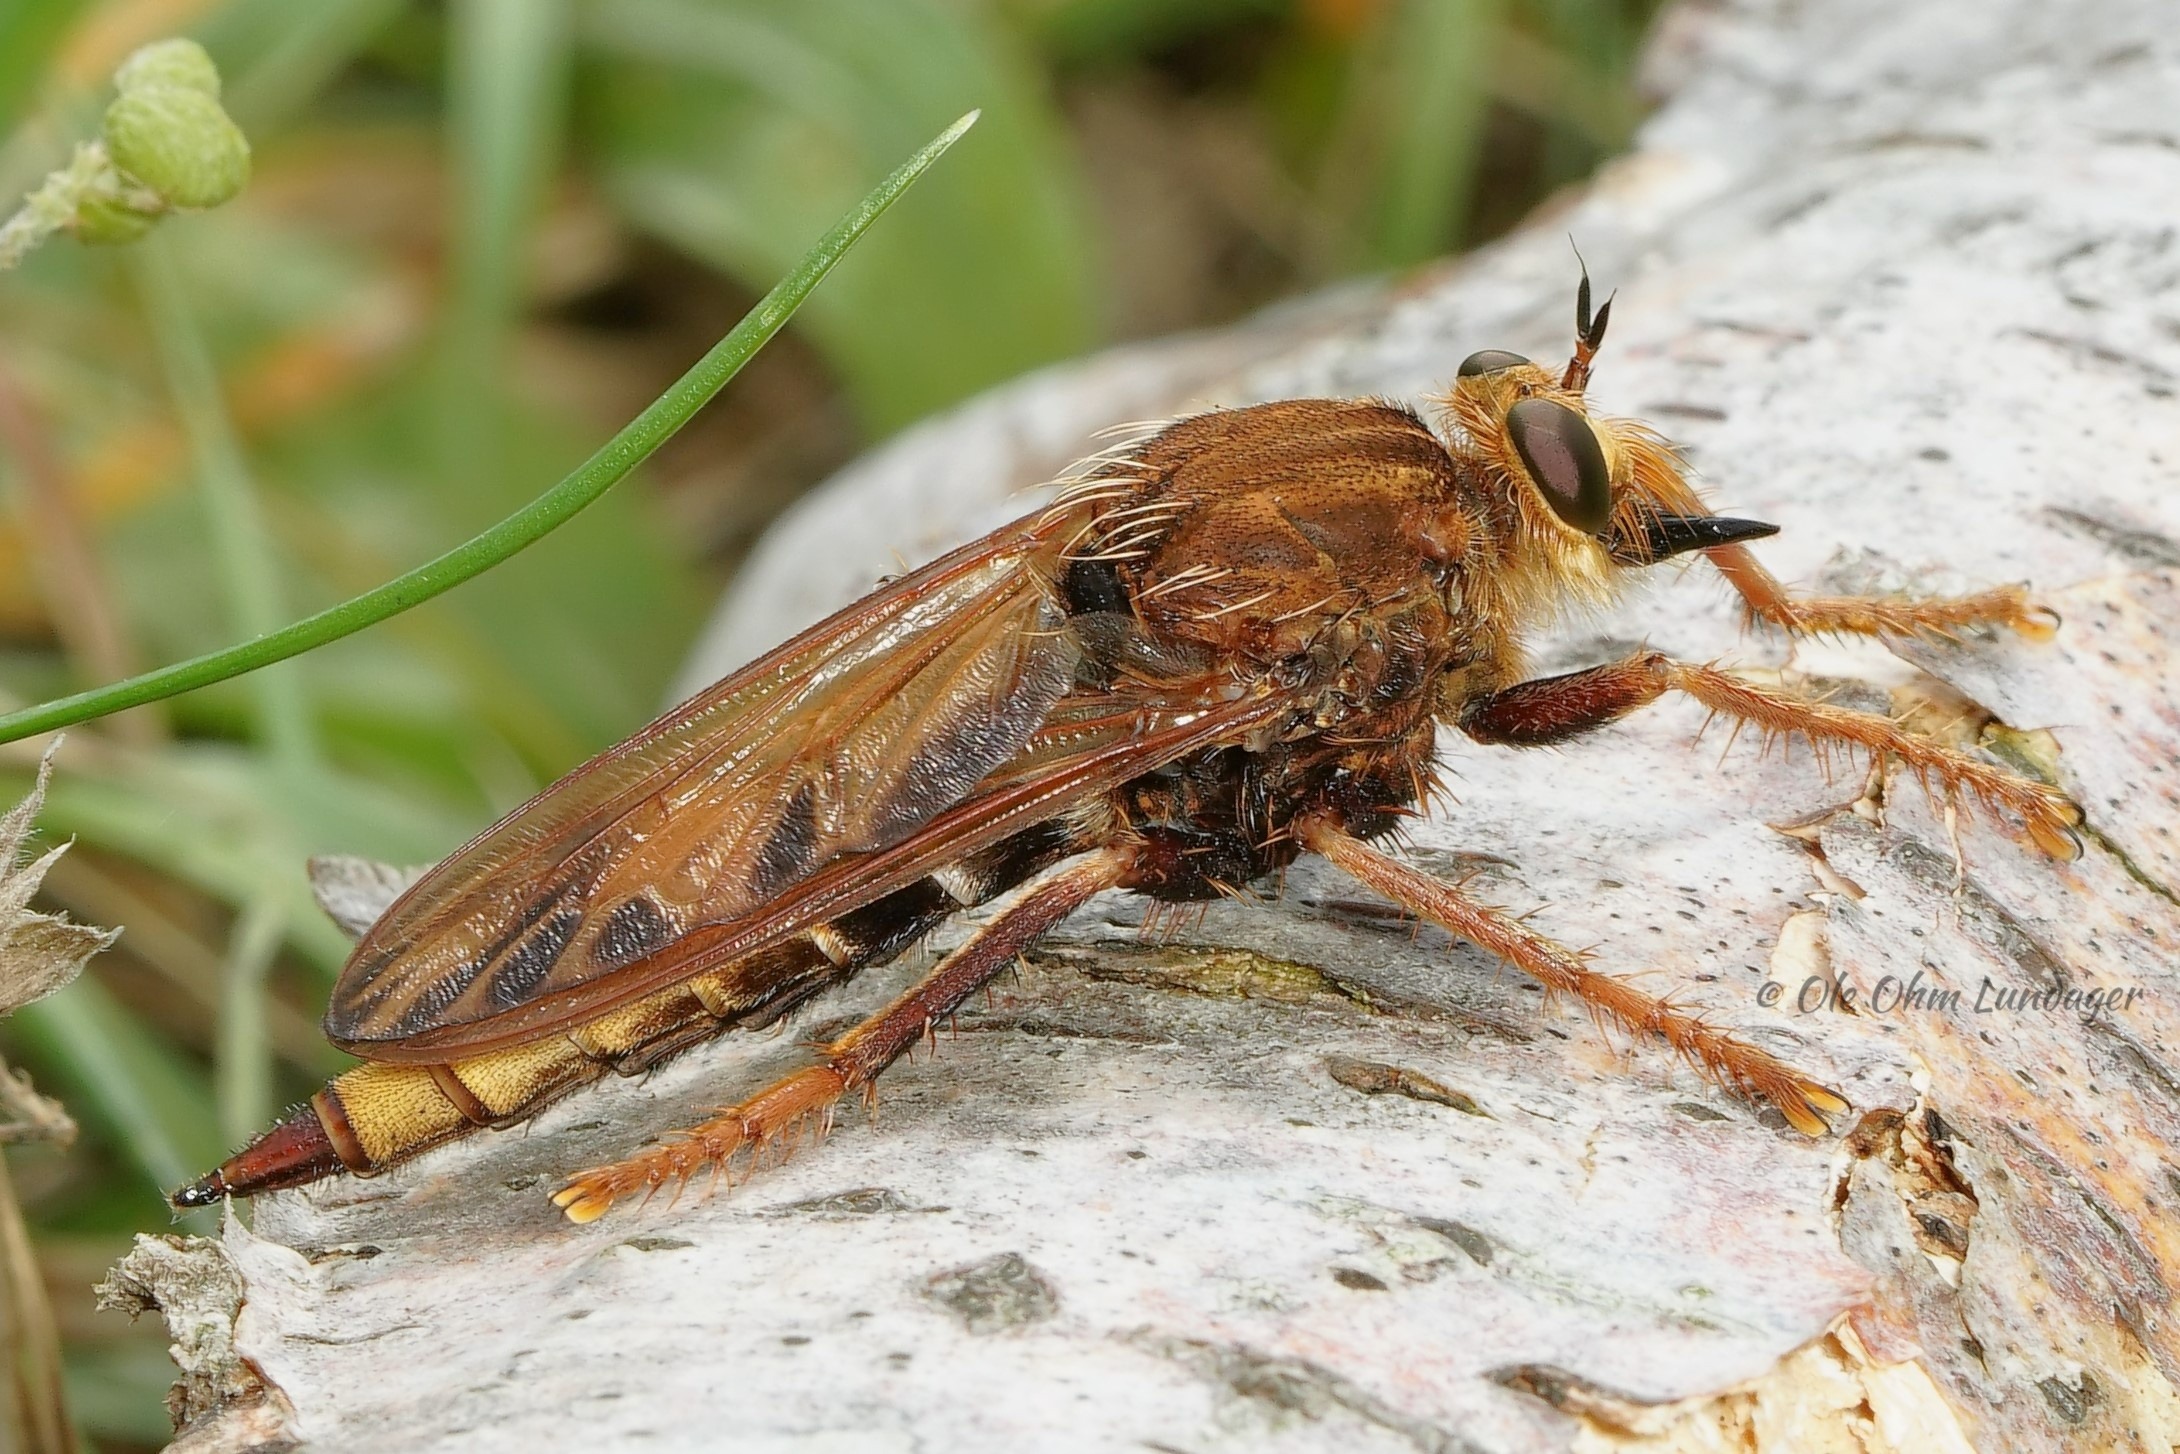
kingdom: Animalia
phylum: Arthropoda
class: Insecta
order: Diptera
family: Asilidae
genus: Asilus
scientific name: Asilus crabroniformis
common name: Stor gødningsrovflue
